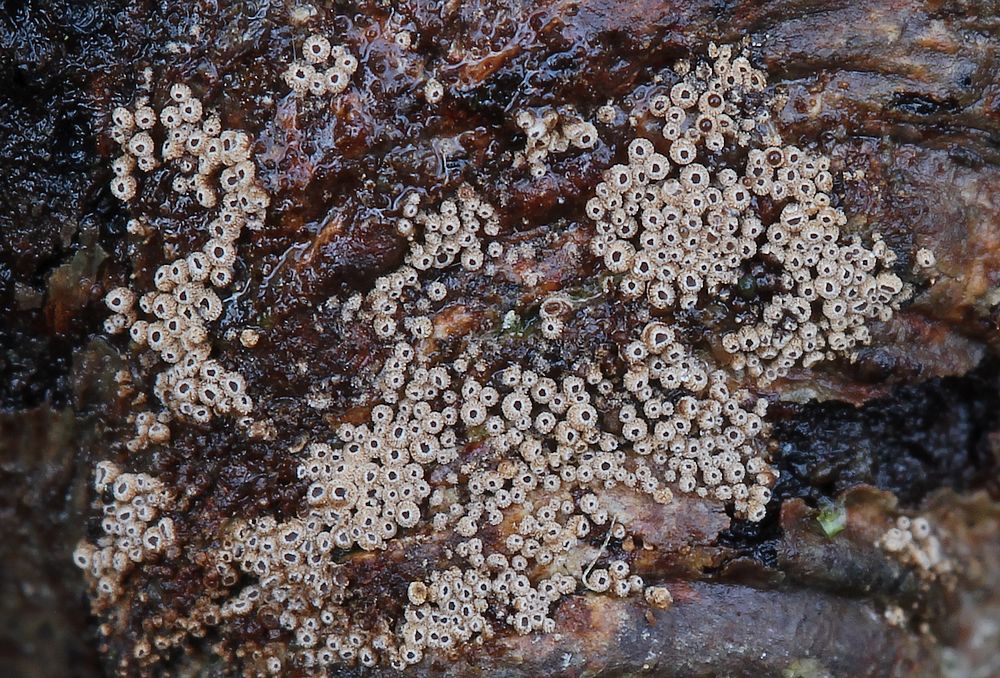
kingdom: Fungi
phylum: Basidiomycota
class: Agaricomycetes
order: Agaricales
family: Niaceae
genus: Merismodes
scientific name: Merismodes anomala
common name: almindelig læderskål
